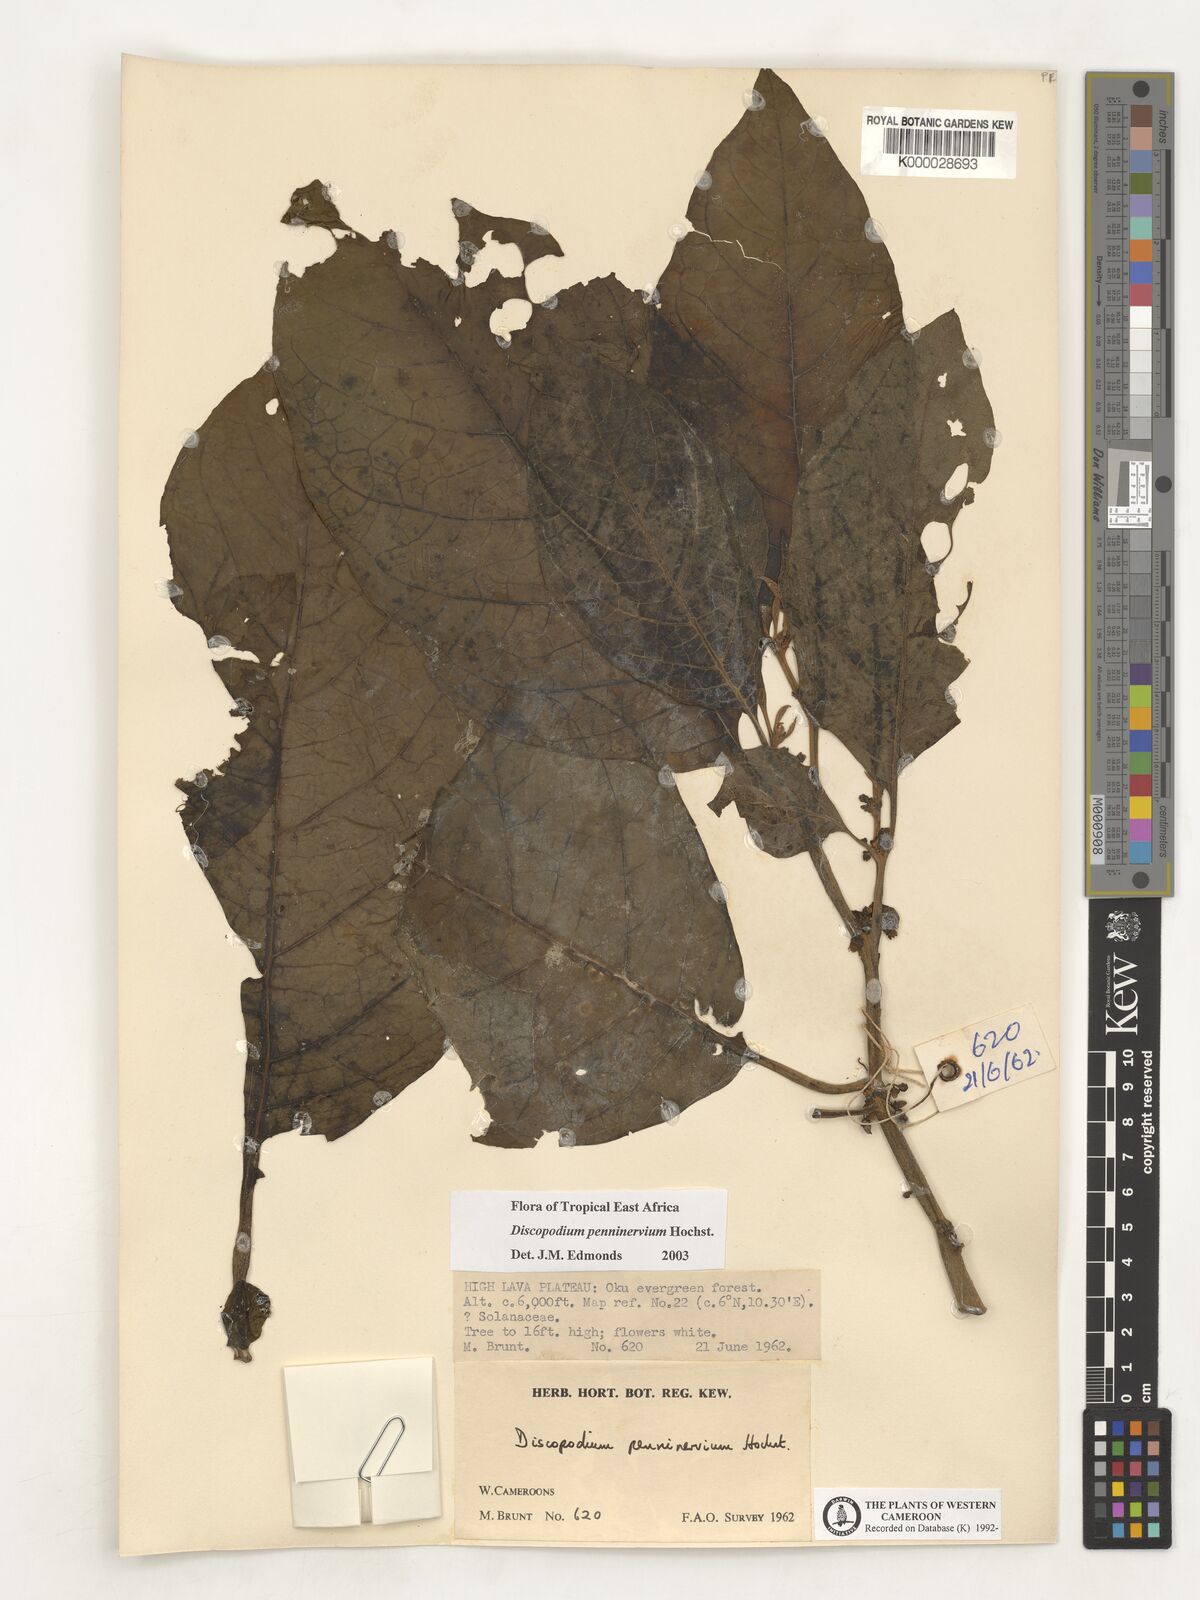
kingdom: Plantae
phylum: Tracheophyta
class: Magnoliopsida
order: Solanales
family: Solanaceae
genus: Discopodium
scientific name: Discopodium penninervium
